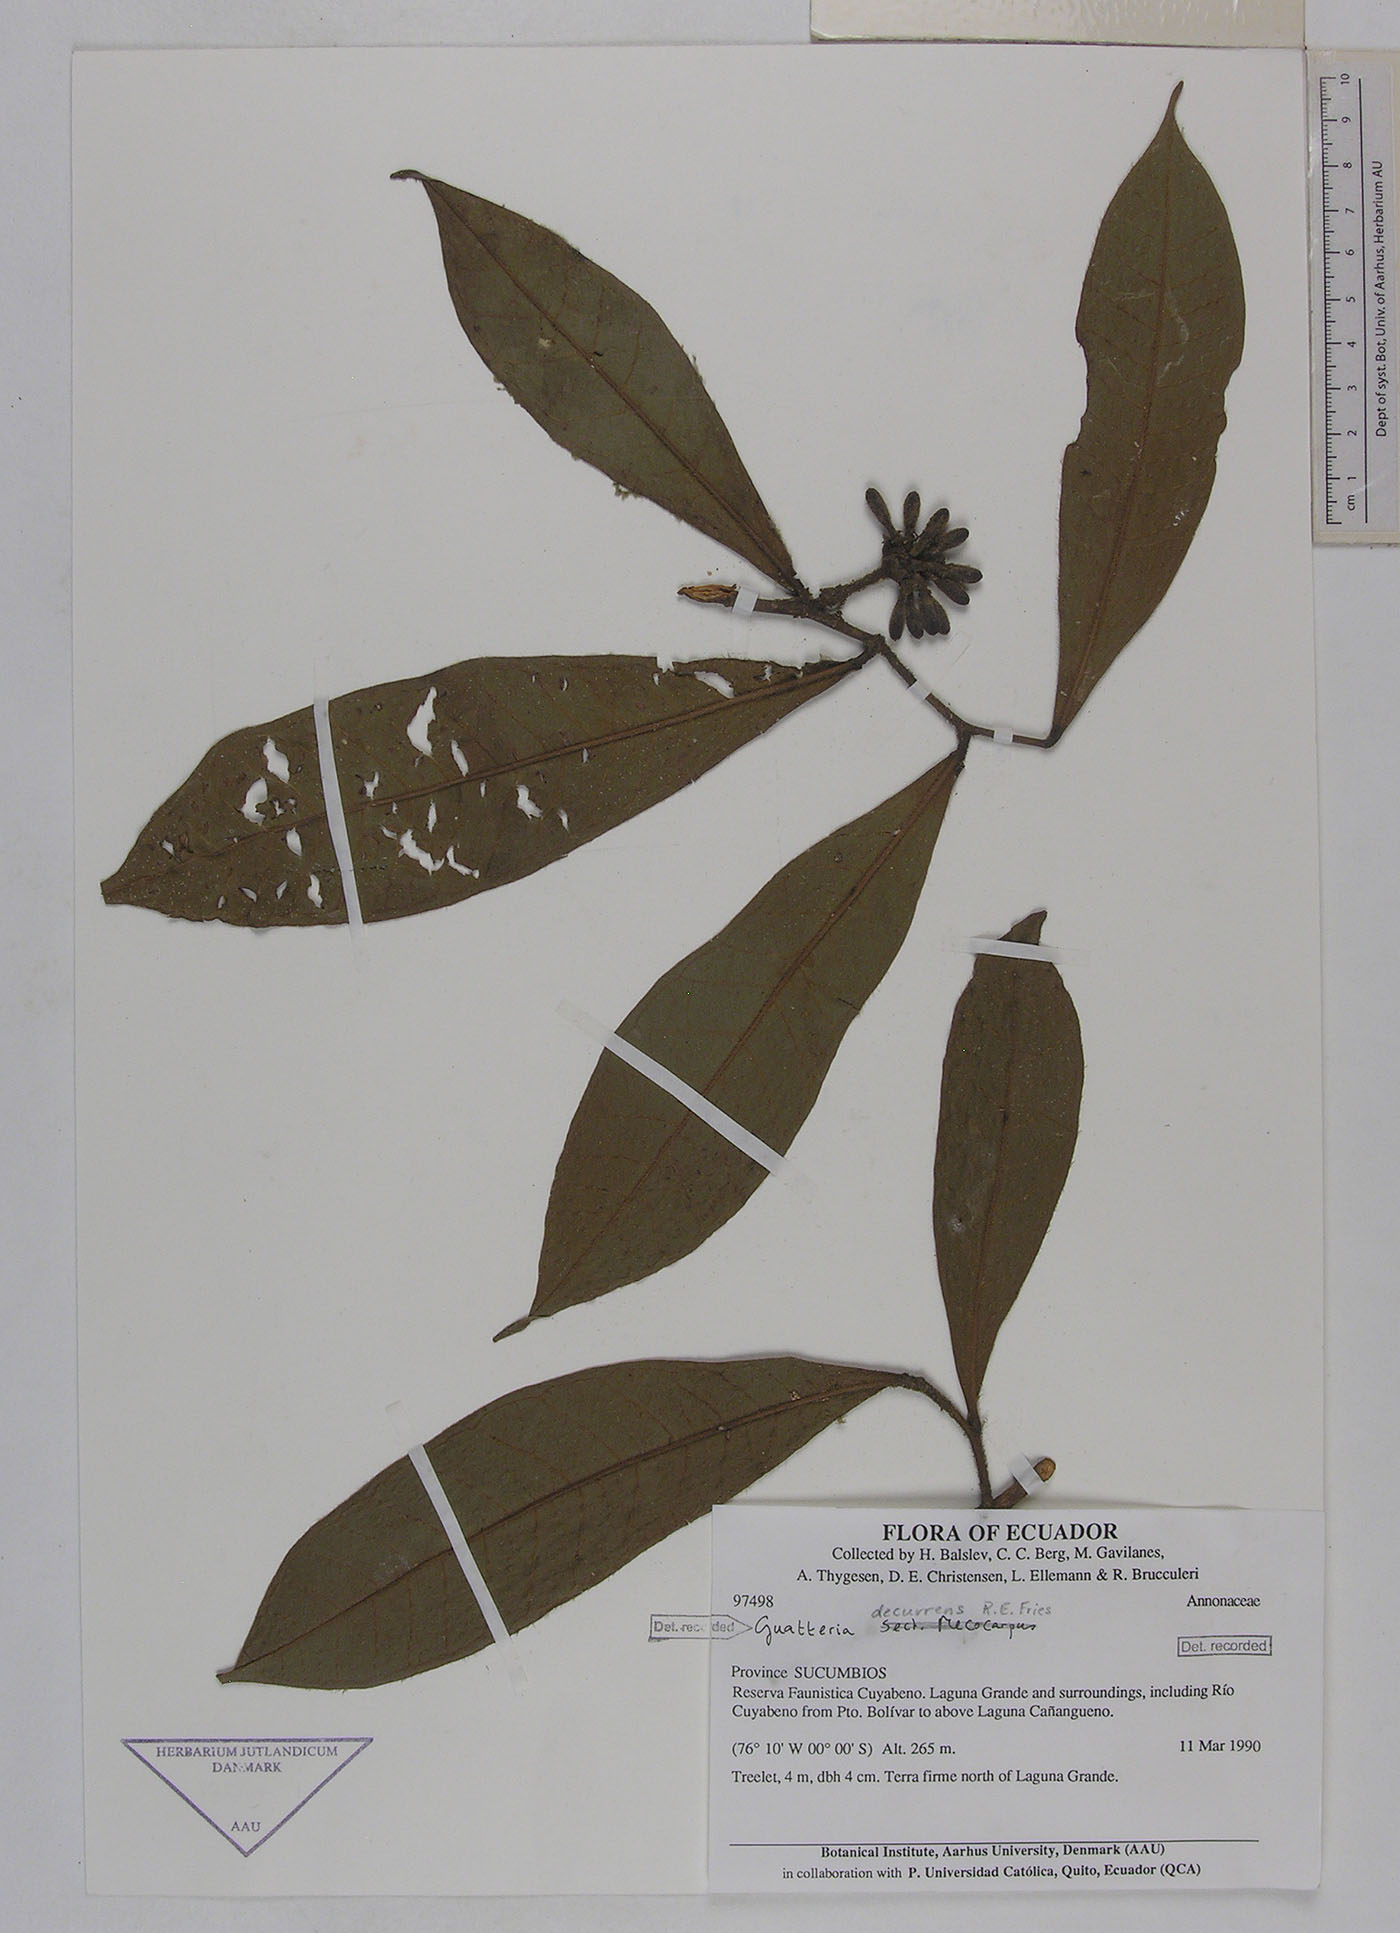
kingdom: Plantae
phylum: Tracheophyta
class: Magnoliopsida
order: Magnoliales
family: Annonaceae
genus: Guatteria
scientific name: Guatteria decurrens
